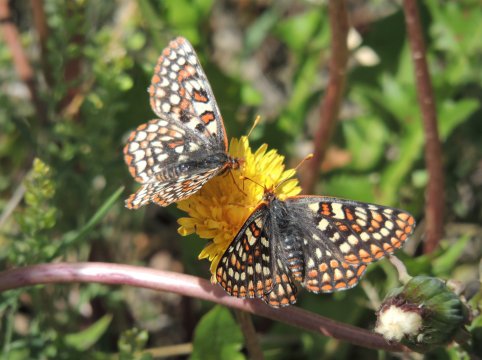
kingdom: Animalia
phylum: Arthropoda
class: Insecta
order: Lepidoptera
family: Nymphalidae
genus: Occidryas
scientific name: Occidryas anicia
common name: Anicia Checkerspot
